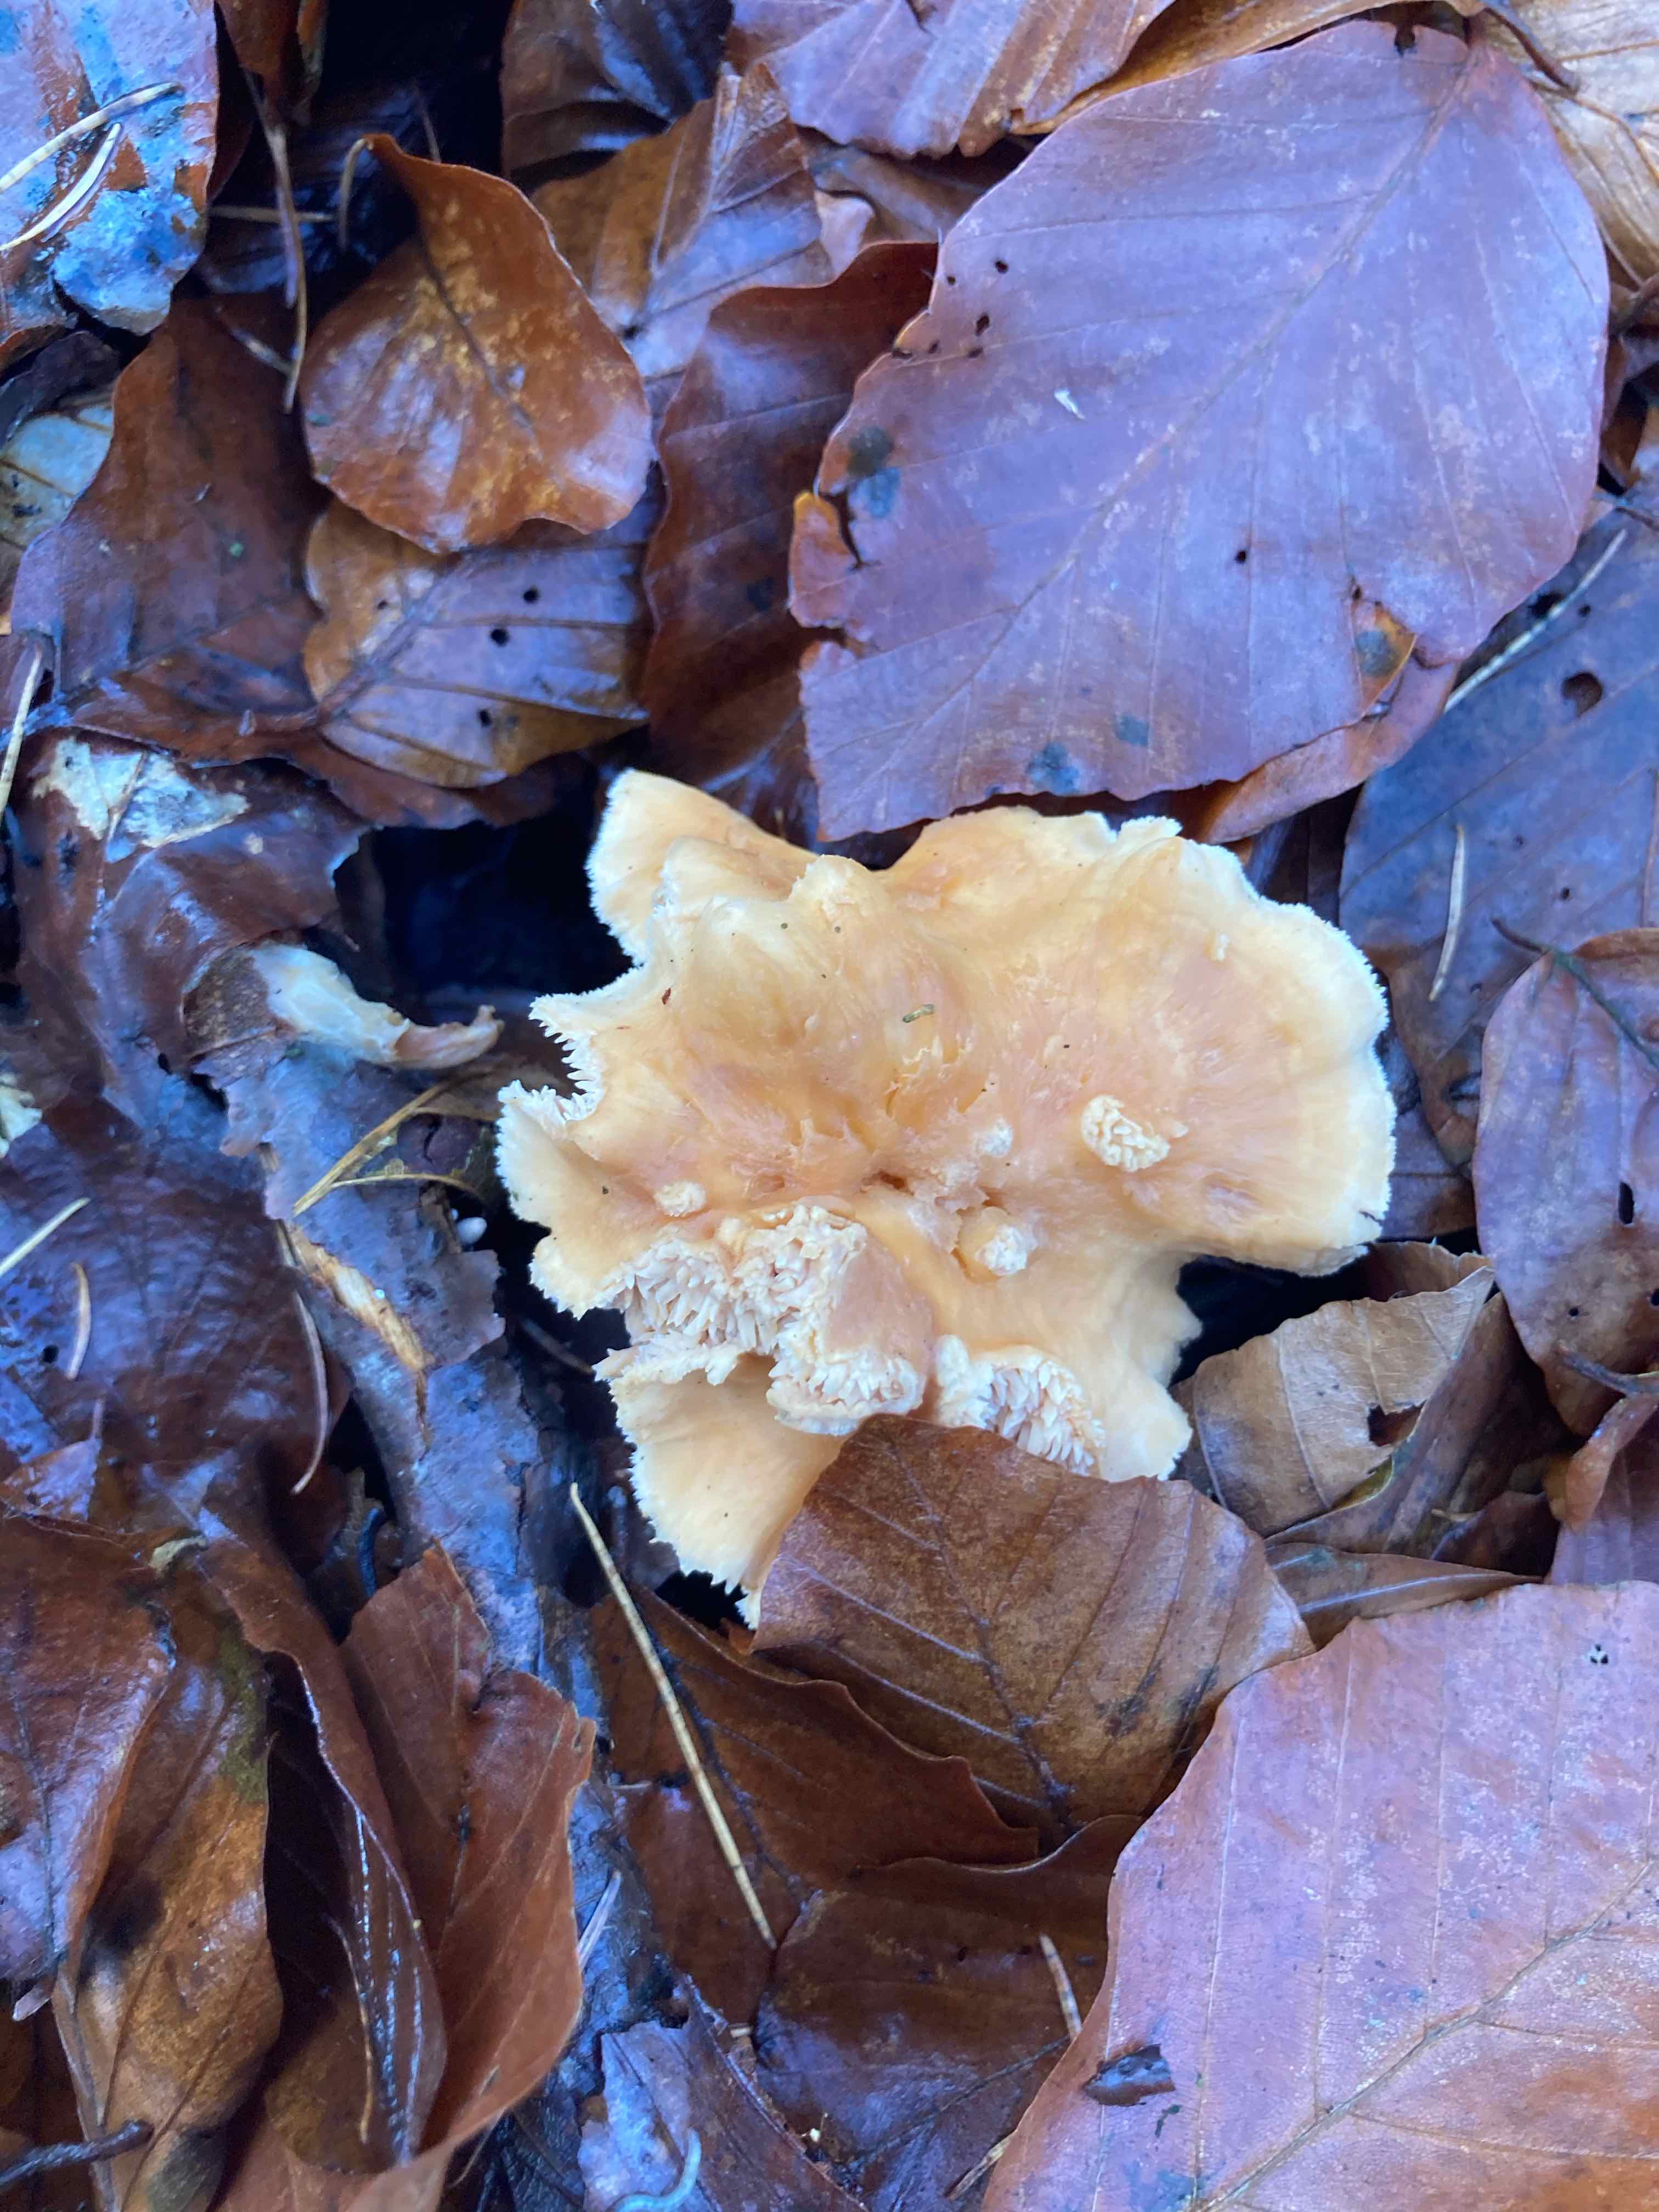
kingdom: Fungi
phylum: Basidiomycota
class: Agaricomycetes
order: Cantharellales
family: Hydnaceae
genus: Hydnum
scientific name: Hydnum
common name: pigsvamp
